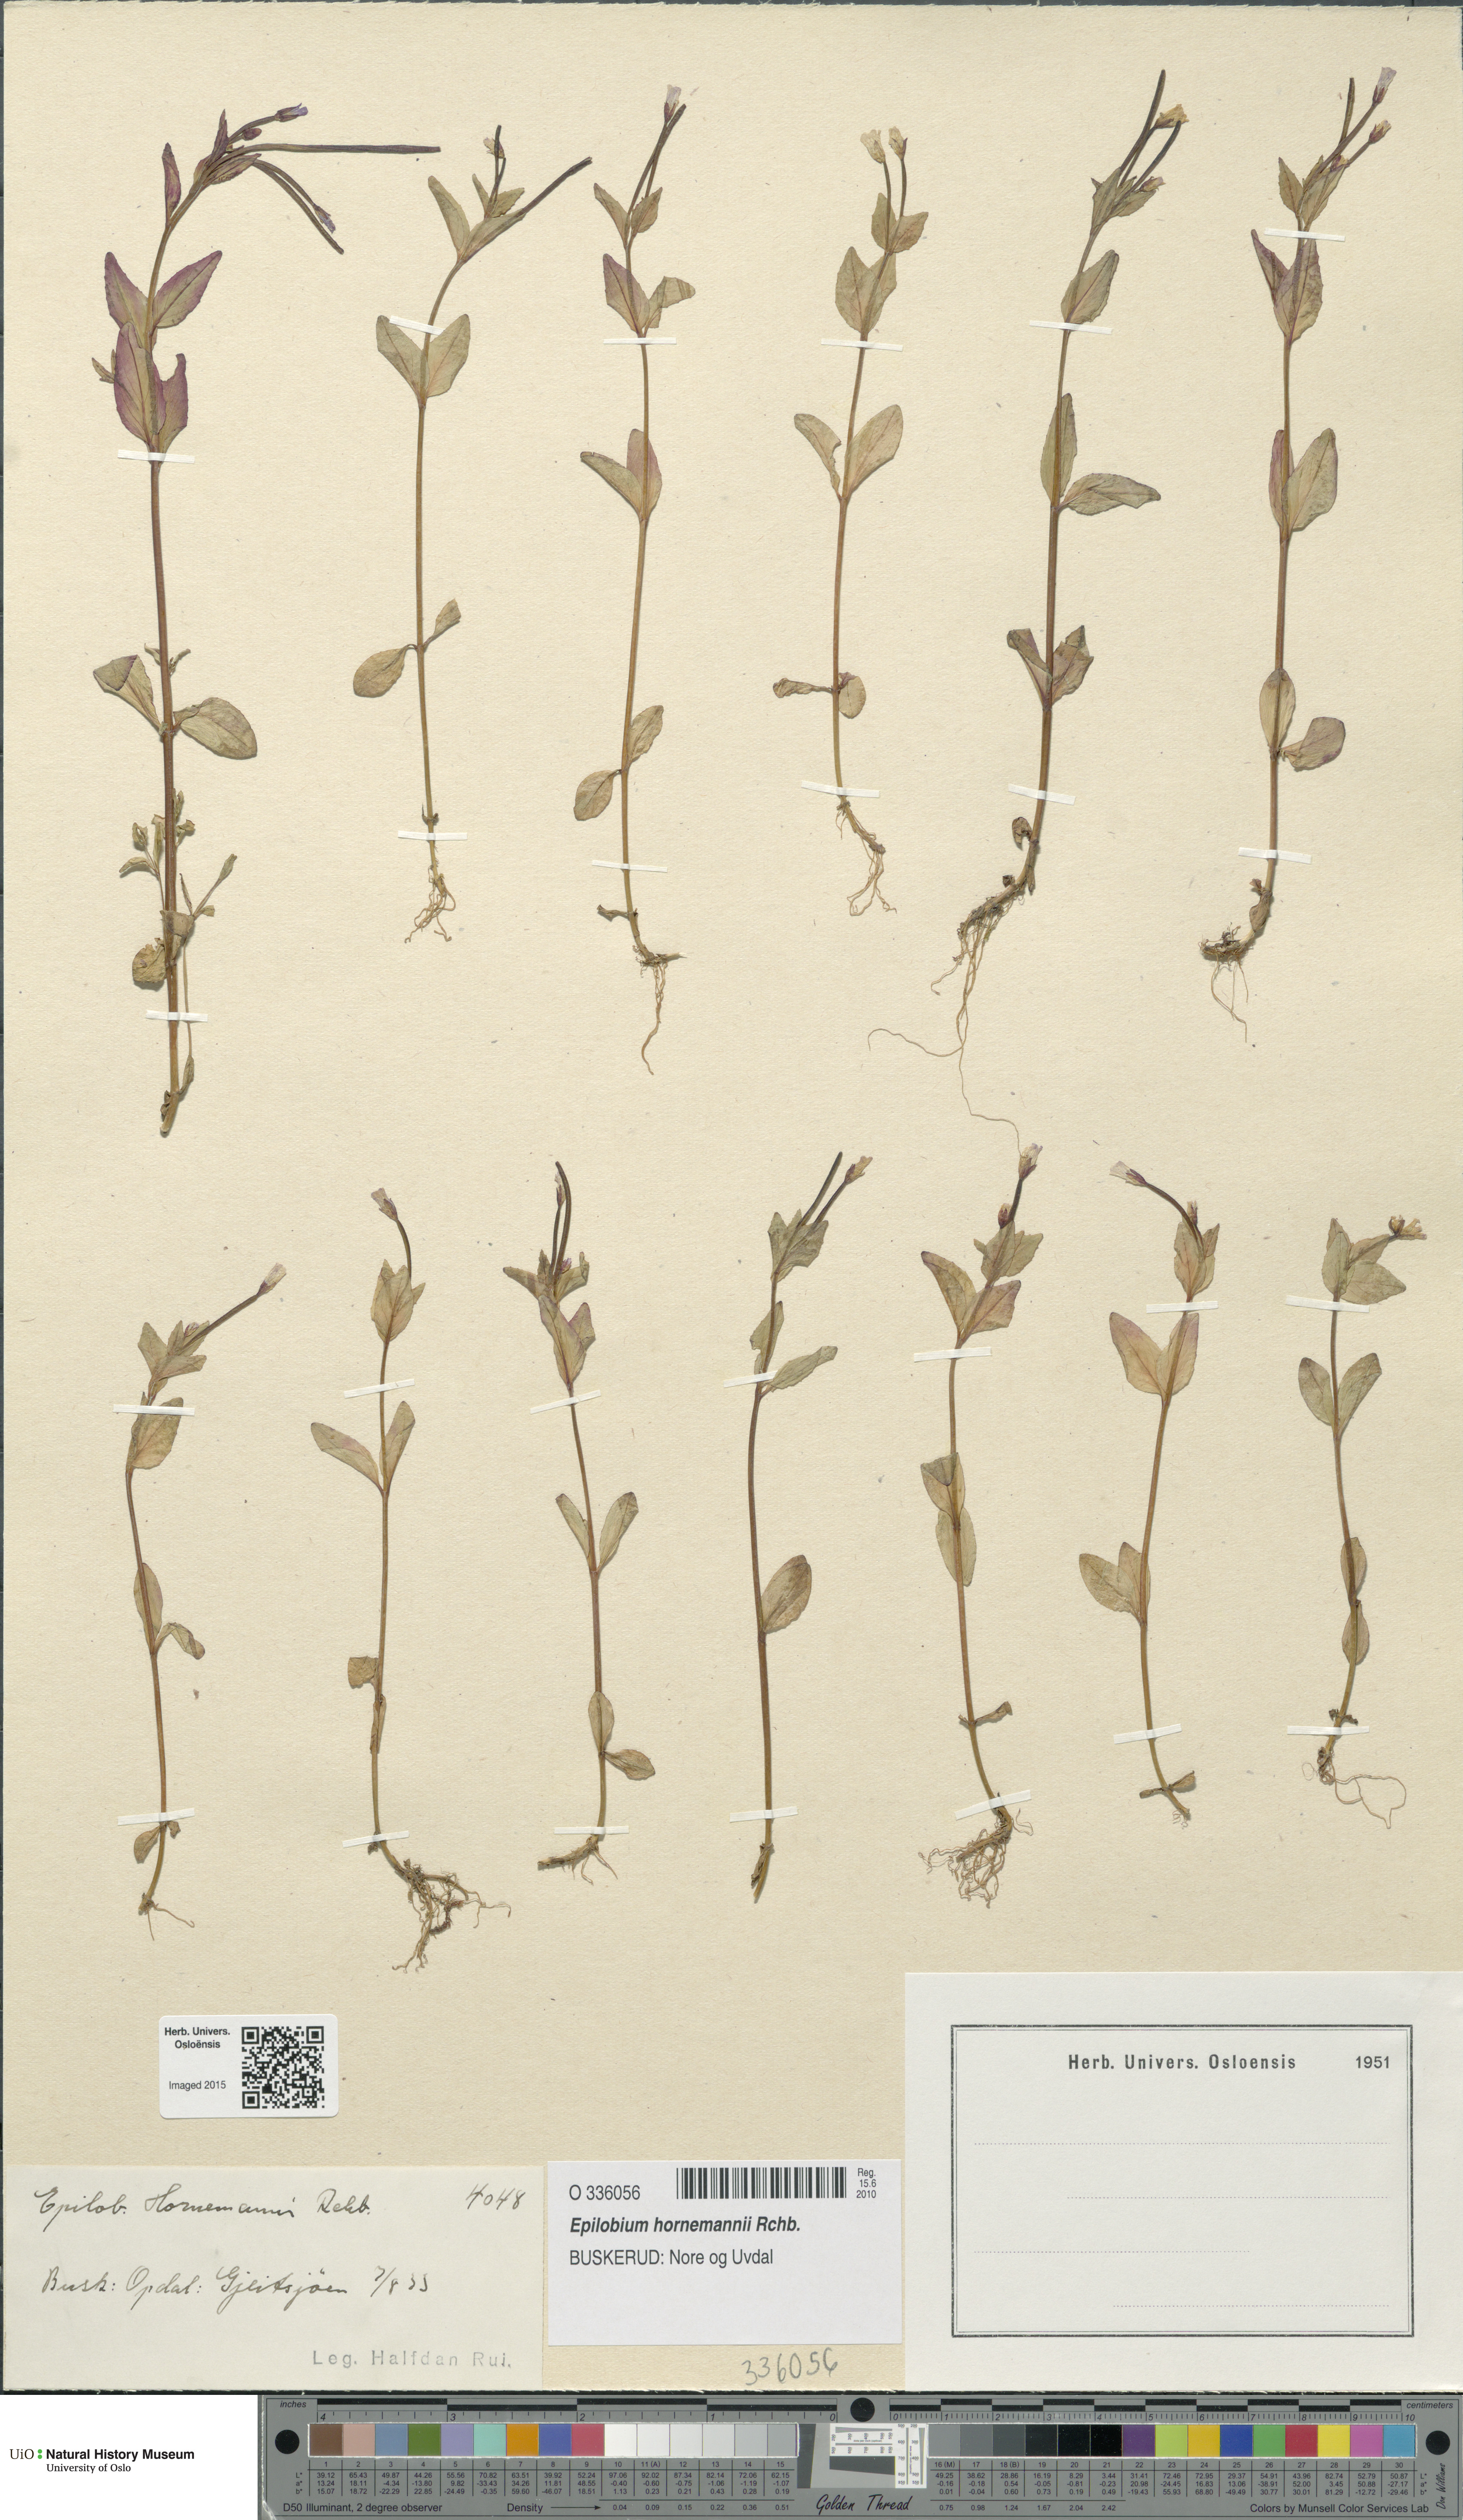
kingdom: Plantae
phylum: Tracheophyta
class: Magnoliopsida
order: Myrtales
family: Onagraceae
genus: Epilobium
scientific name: Epilobium hornemannii
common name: Hornemann's willowherb
